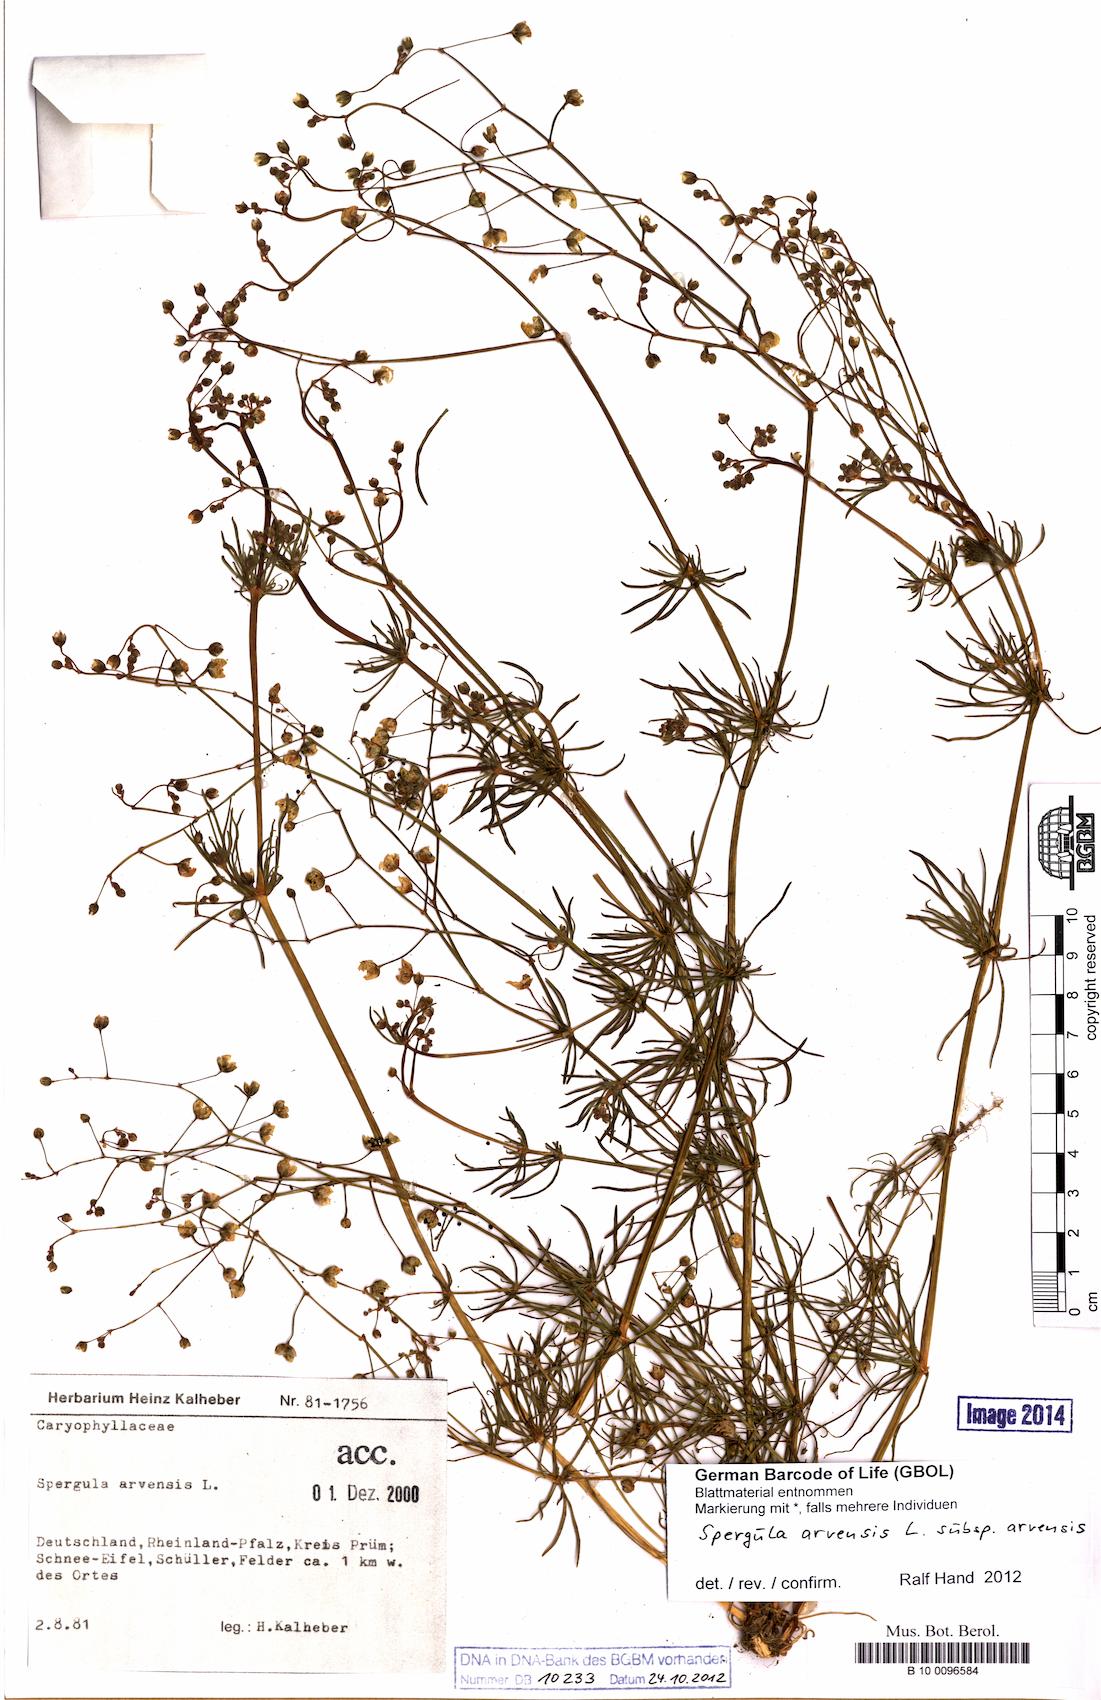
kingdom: Plantae
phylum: Tracheophyta
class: Magnoliopsida
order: Caryophyllales
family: Caryophyllaceae
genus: Spergula
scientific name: Spergula arvensis
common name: Corn spurrey
